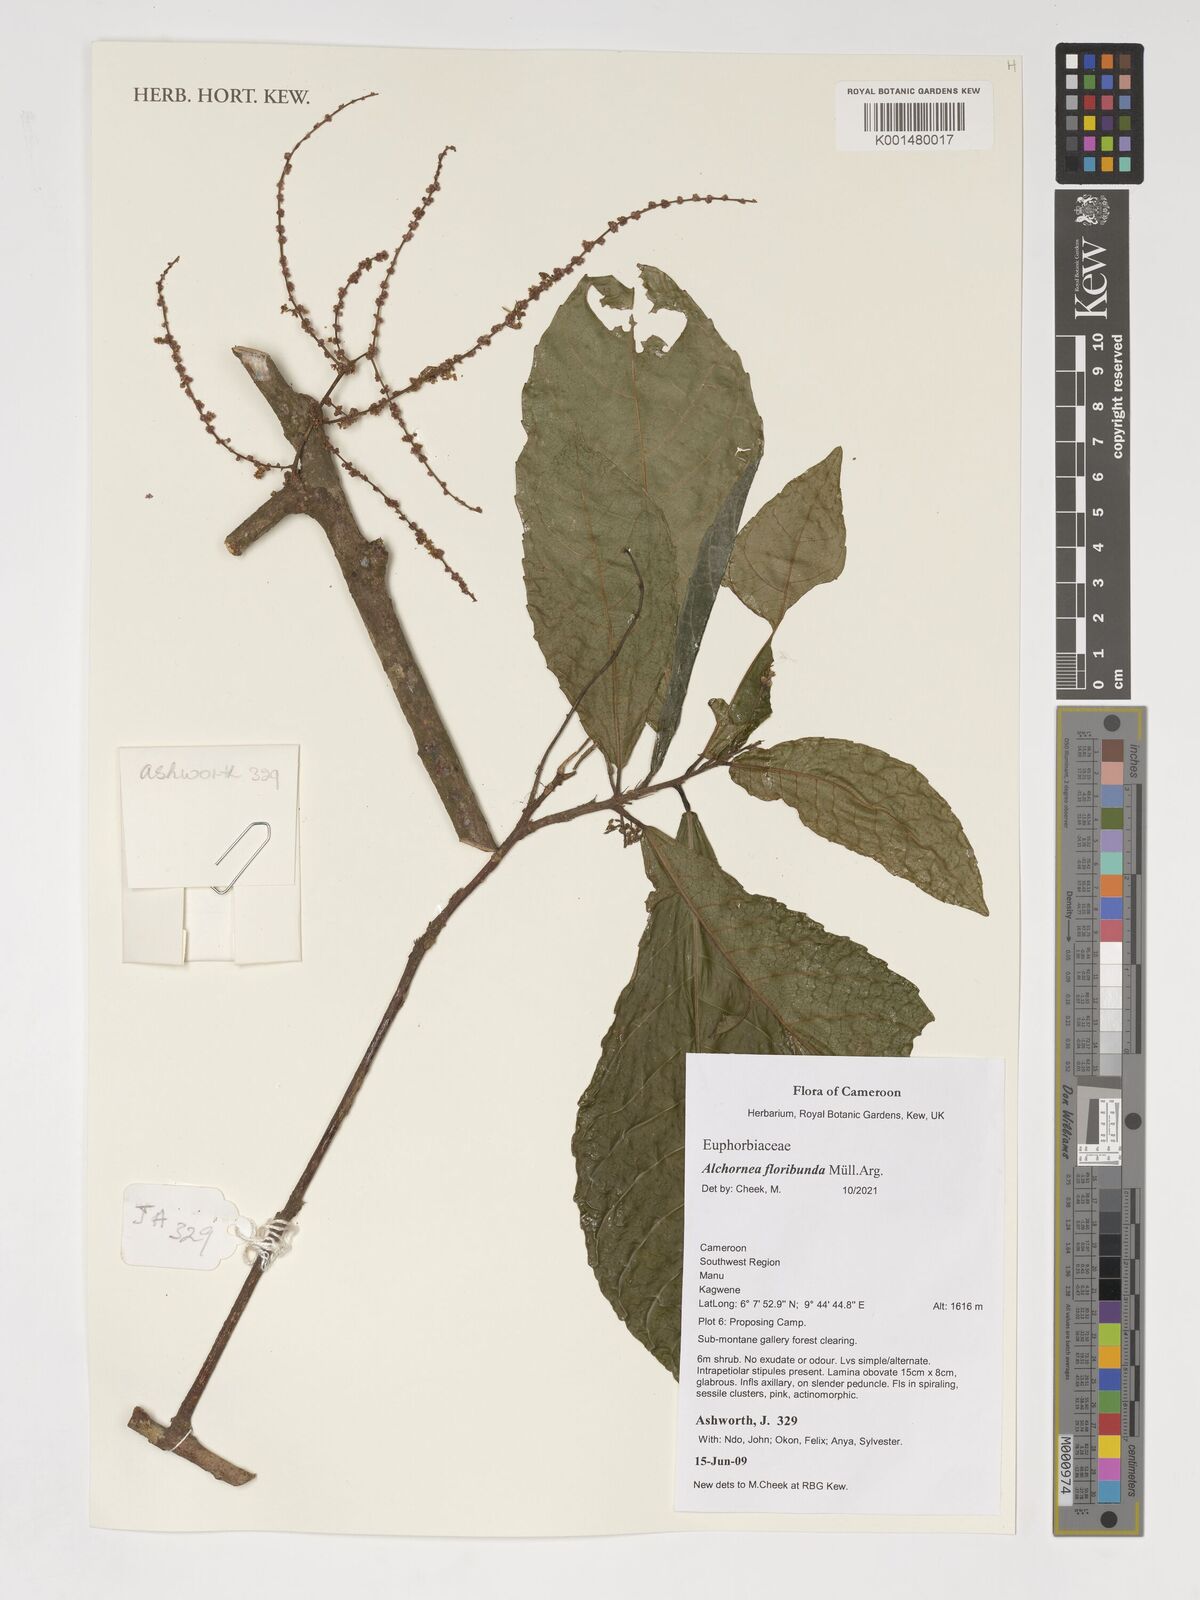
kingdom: Plantae
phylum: Tracheophyta
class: Magnoliopsida
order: Malpighiales
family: Euphorbiaceae
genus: Alchornea
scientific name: Alchornea floribunda
